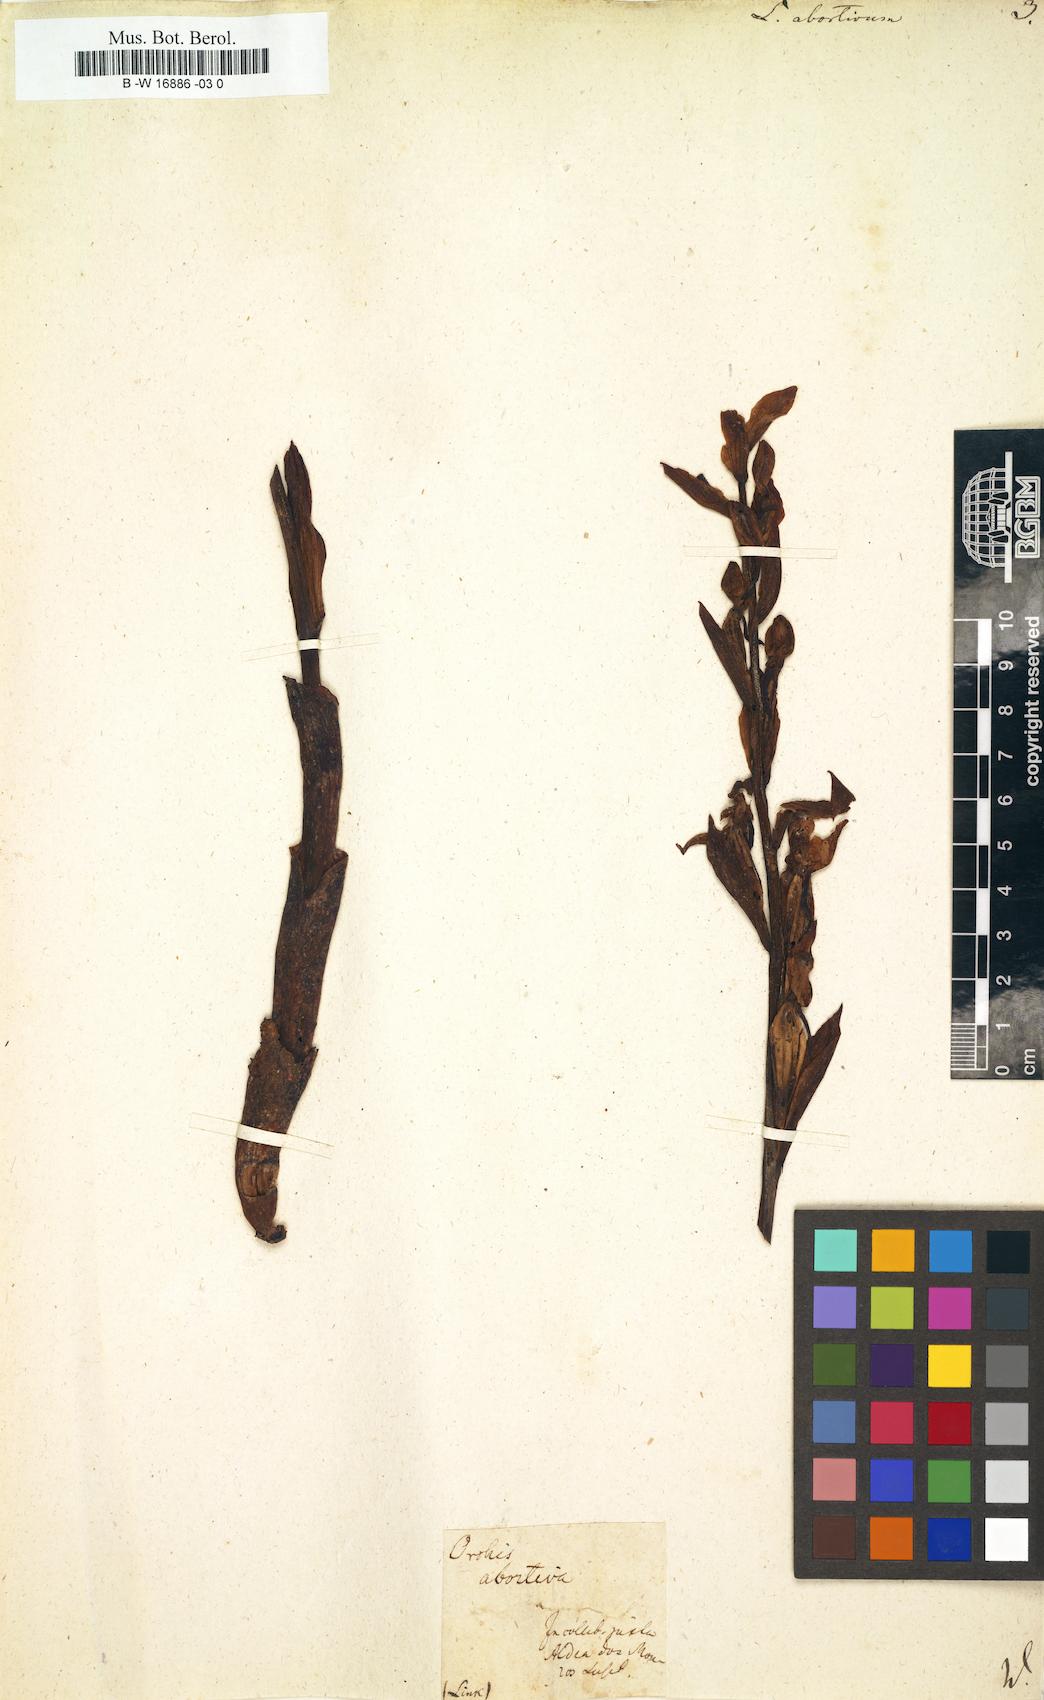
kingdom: Plantae
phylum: Tracheophyta
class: Liliopsida
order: Asparagales
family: Orchidaceae
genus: Limodorum
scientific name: Limodorum abortivum
